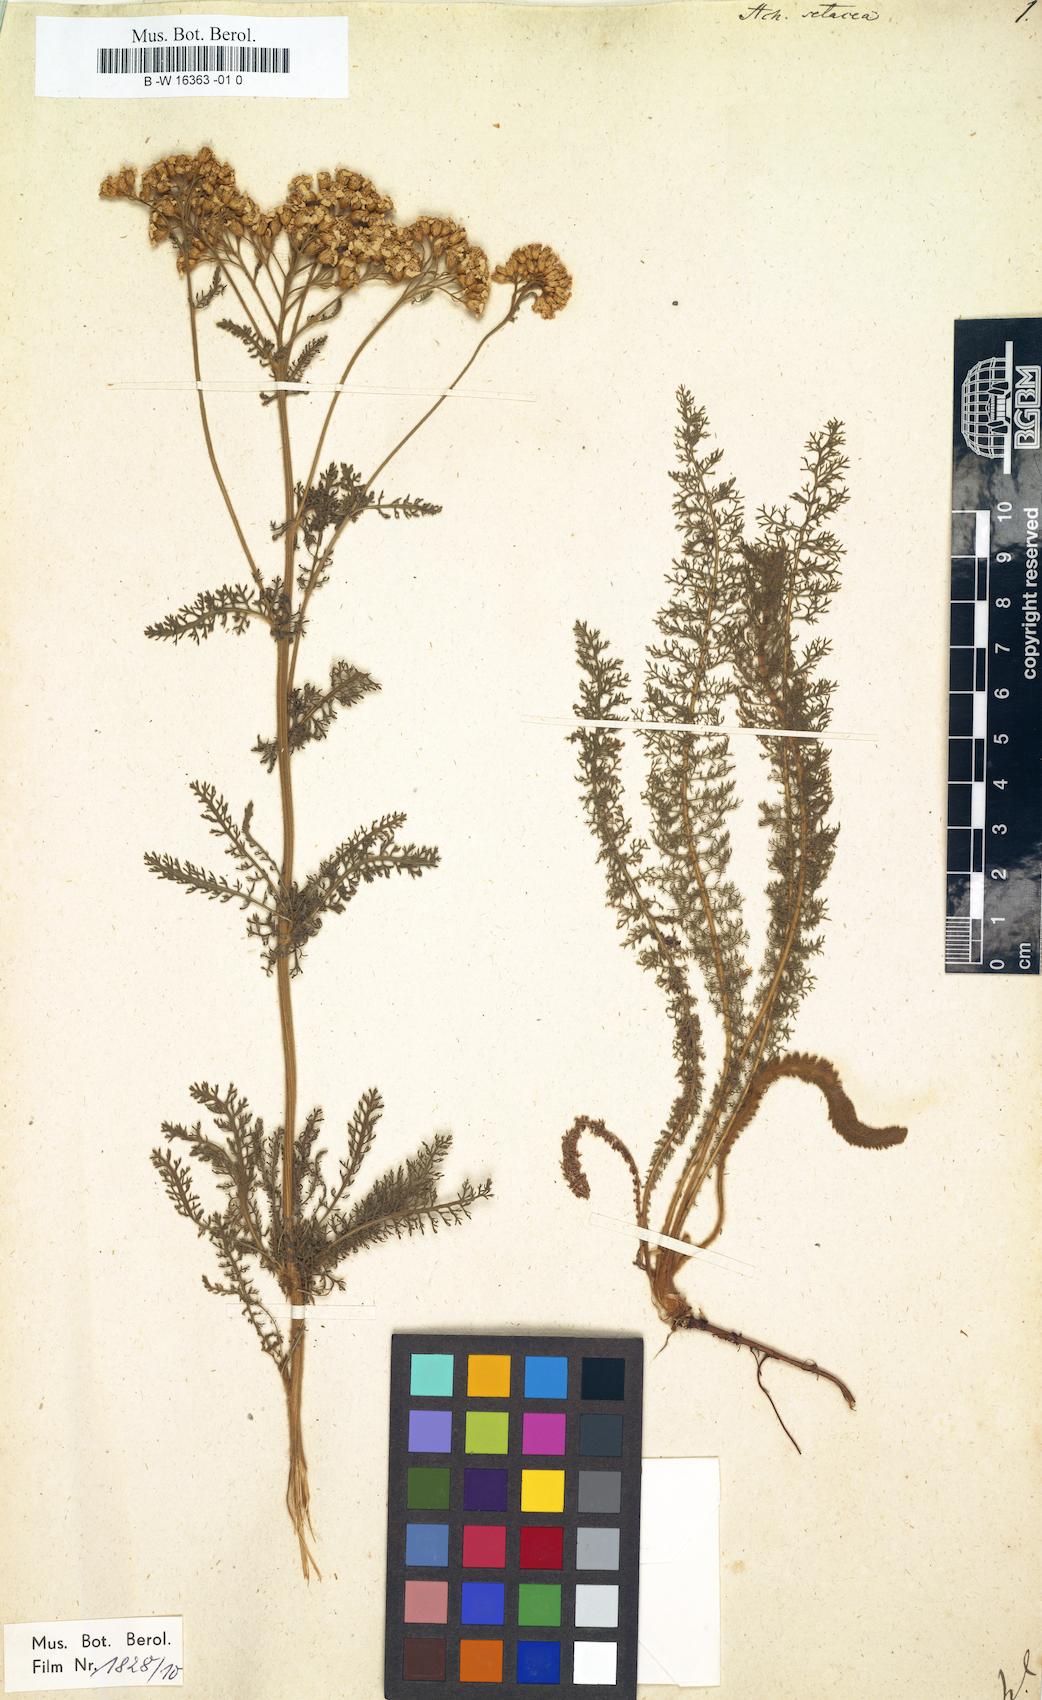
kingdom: Plantae
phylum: Tracheophyta
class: Magnoliopsida
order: Asterales
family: Asteraceae
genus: Achillea
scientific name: Achillea setacea
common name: Bristly yarrow
